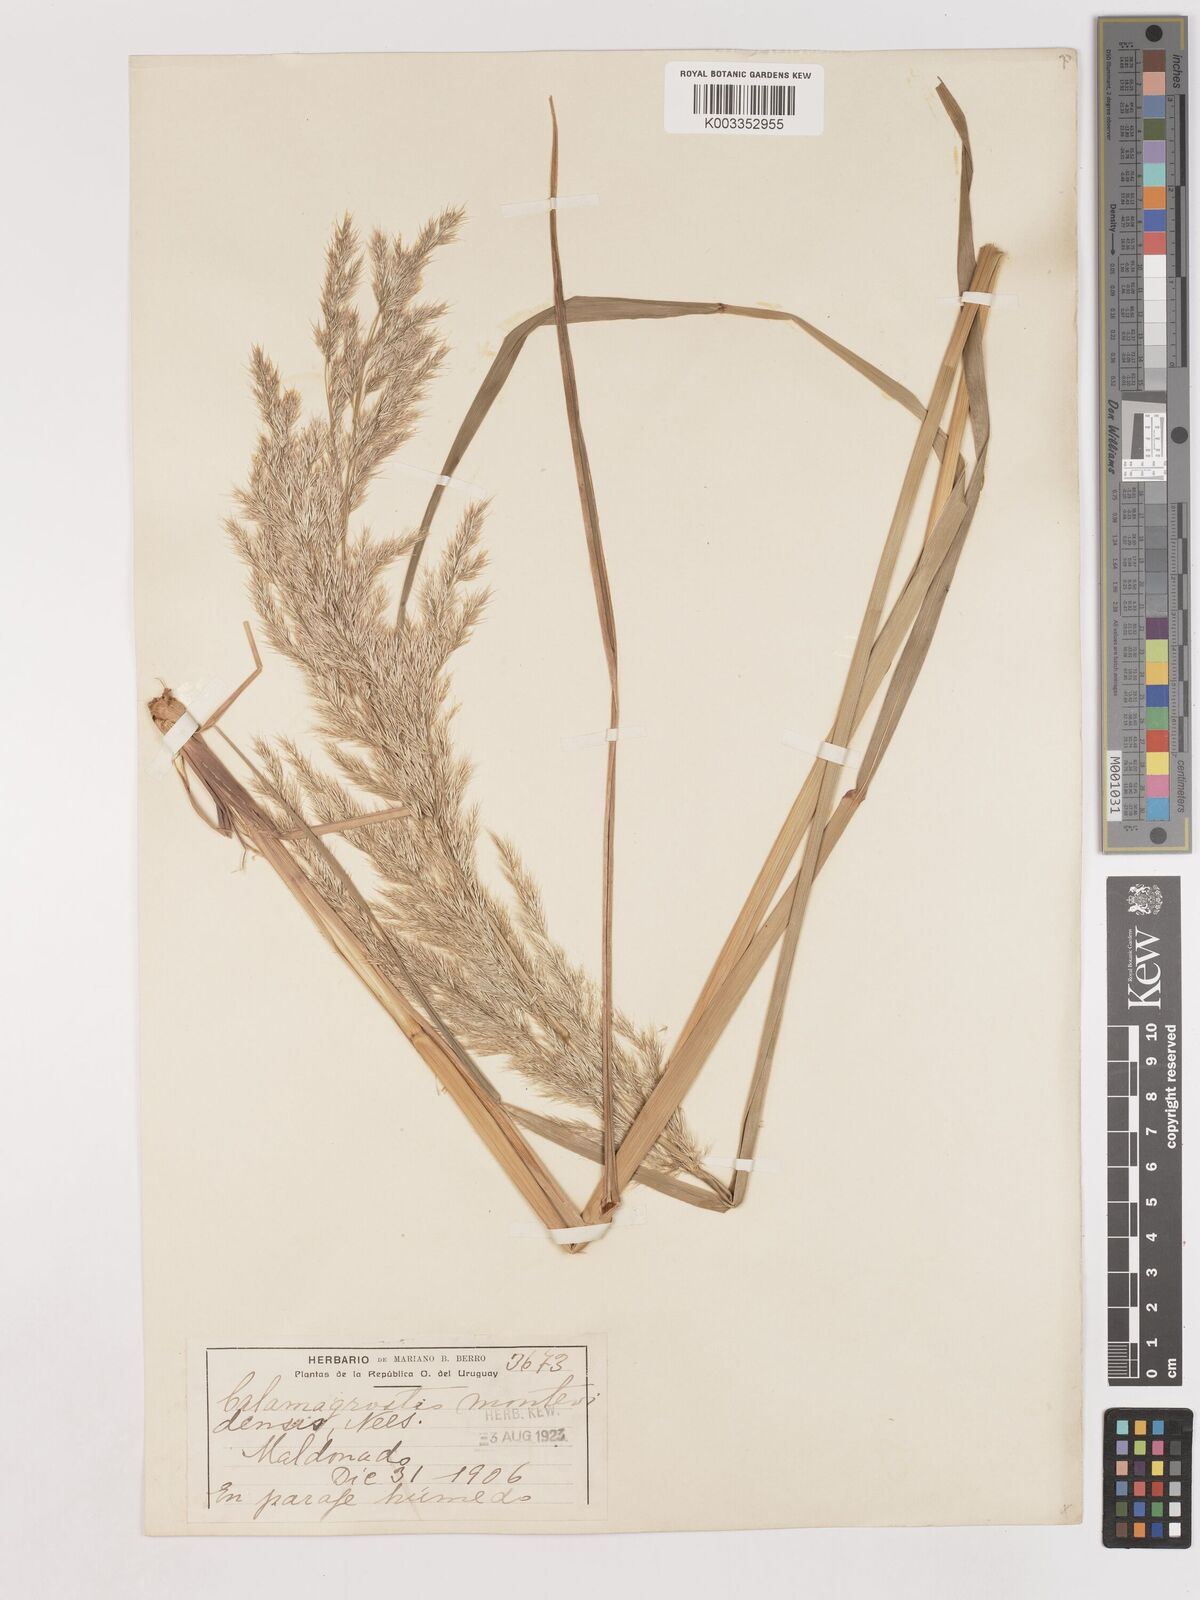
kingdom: Plantae
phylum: Tracheophyta
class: Liliopsida
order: Poales
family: Poaceae
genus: Cinnagrostis
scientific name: Cinnagrostis viridiflavescens
